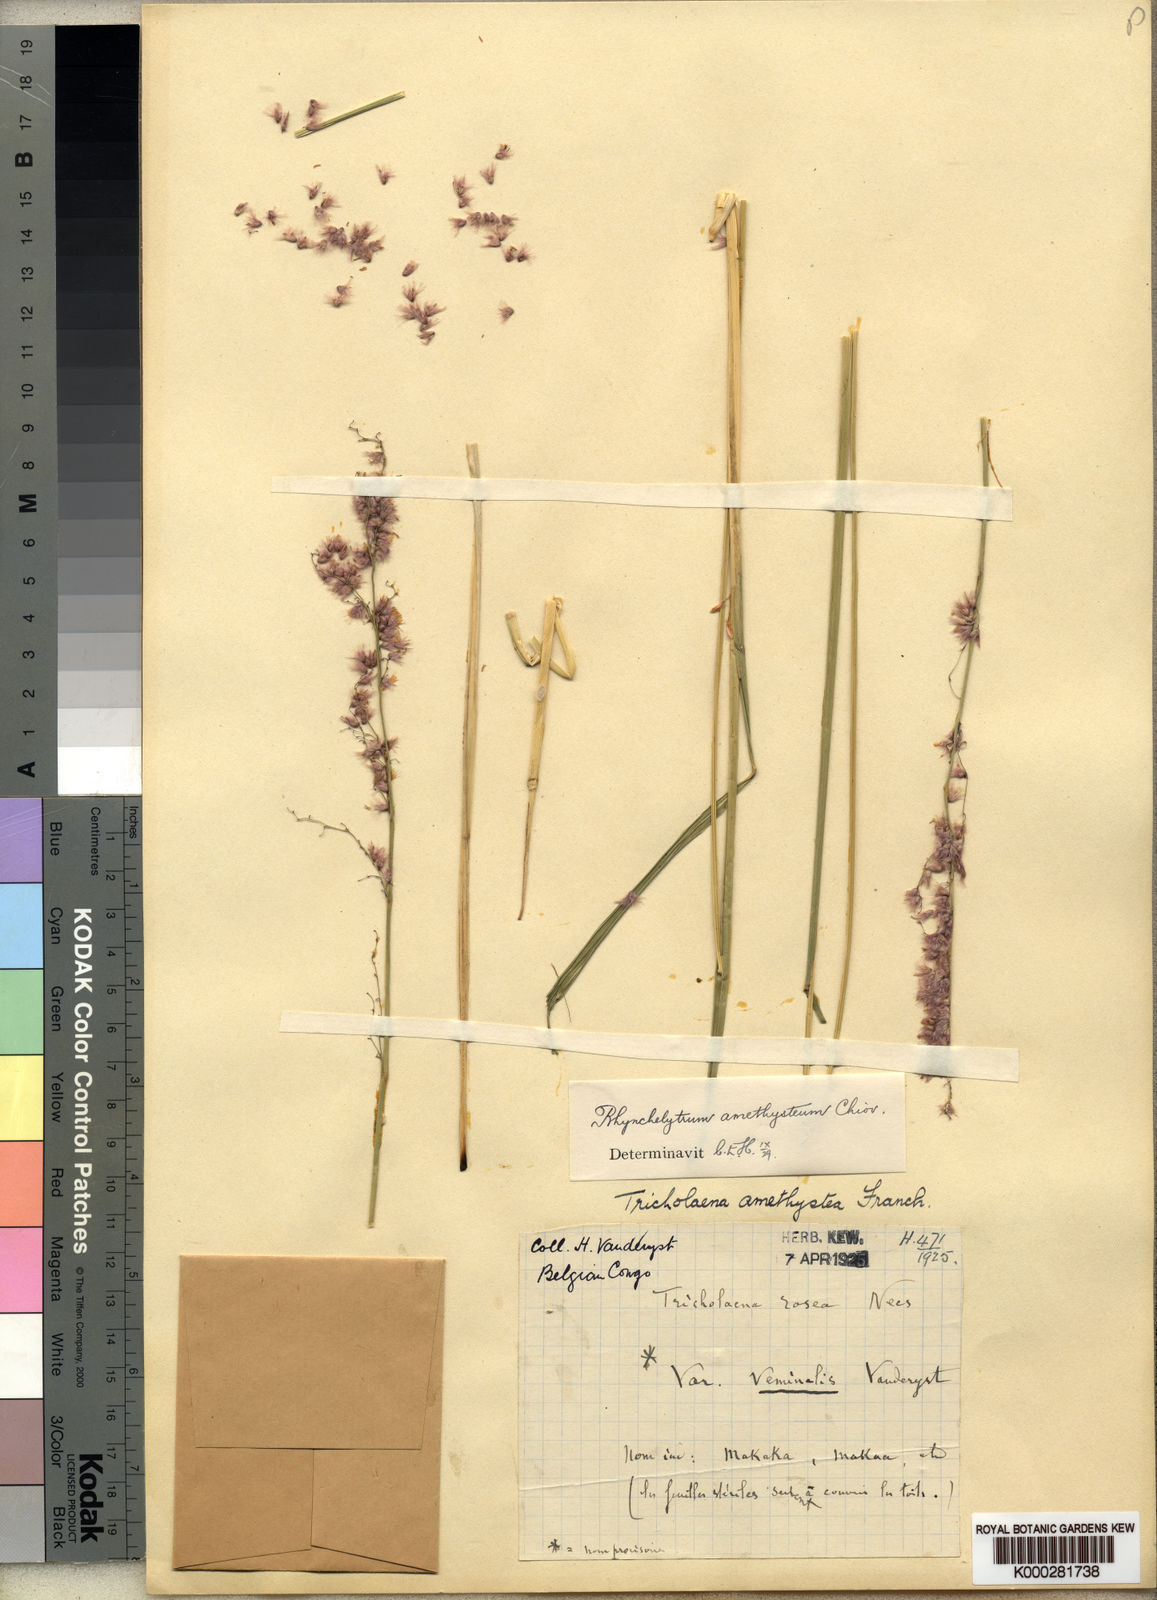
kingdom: Plantae
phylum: Tracheophyta
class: Liliopsida
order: Poales
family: Poaceae
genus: Melinis
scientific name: Melinis amethystea
